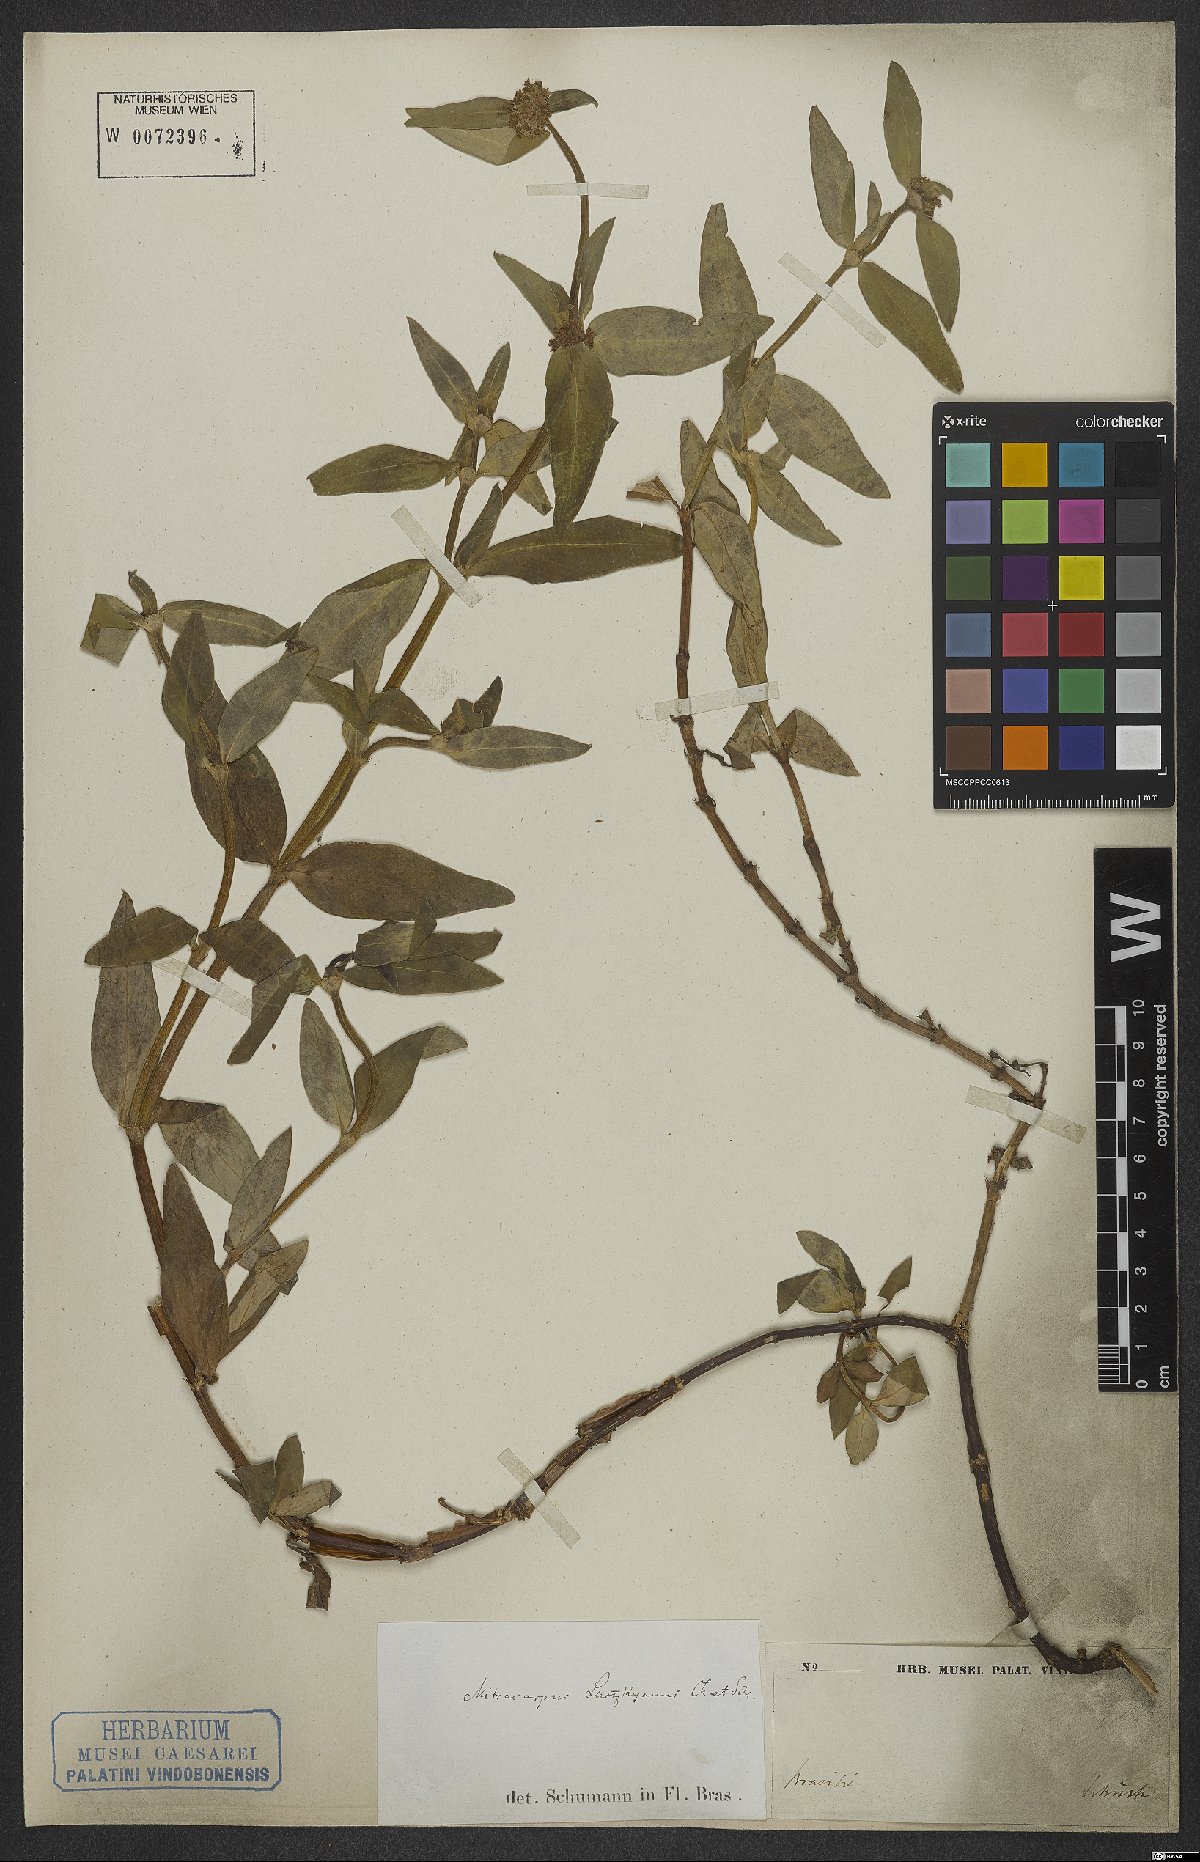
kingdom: Plantae
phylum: Tracheophyta
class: Magnoliopsida
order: Gentianales
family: Rubiaceae
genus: Mitracarpus
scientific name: Mitracarpus lhotzkyanus
